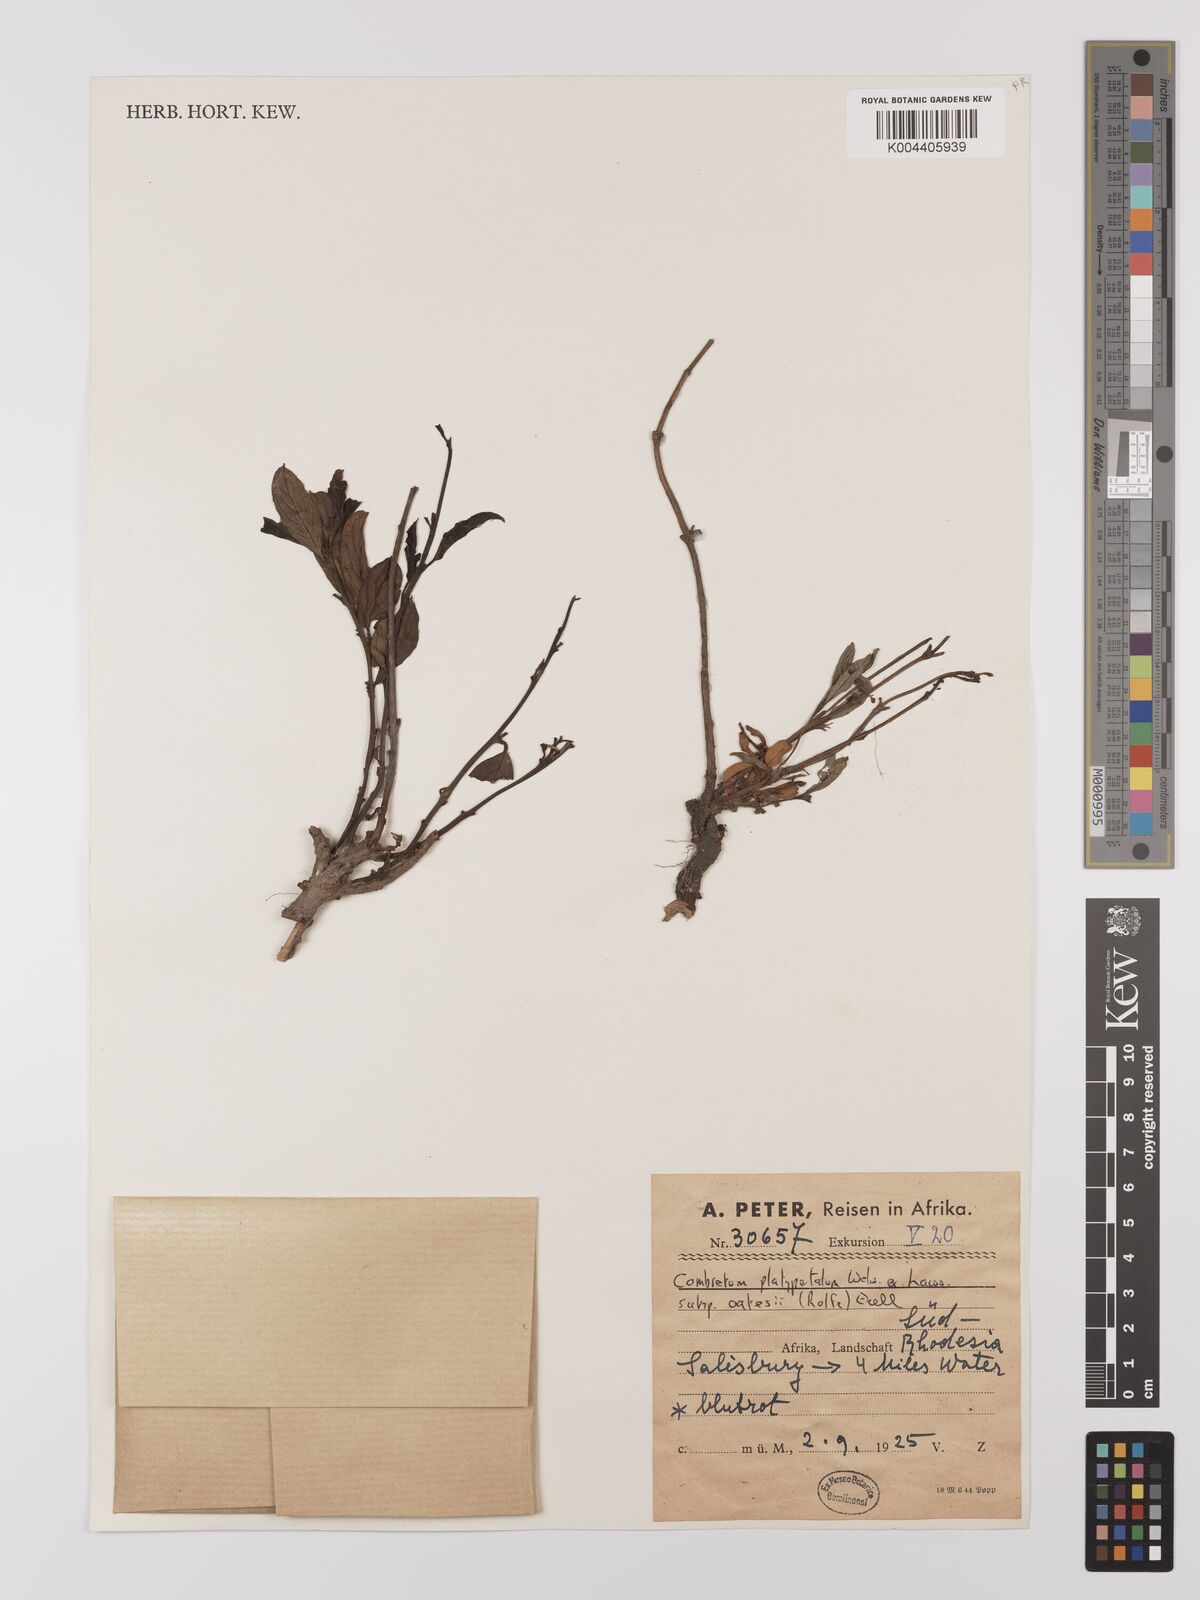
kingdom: Plantae
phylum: Tracheophyta
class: Magnoliopsida
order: Myrtales
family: Combretaceae
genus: Combretum
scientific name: Combretum platypetalum
